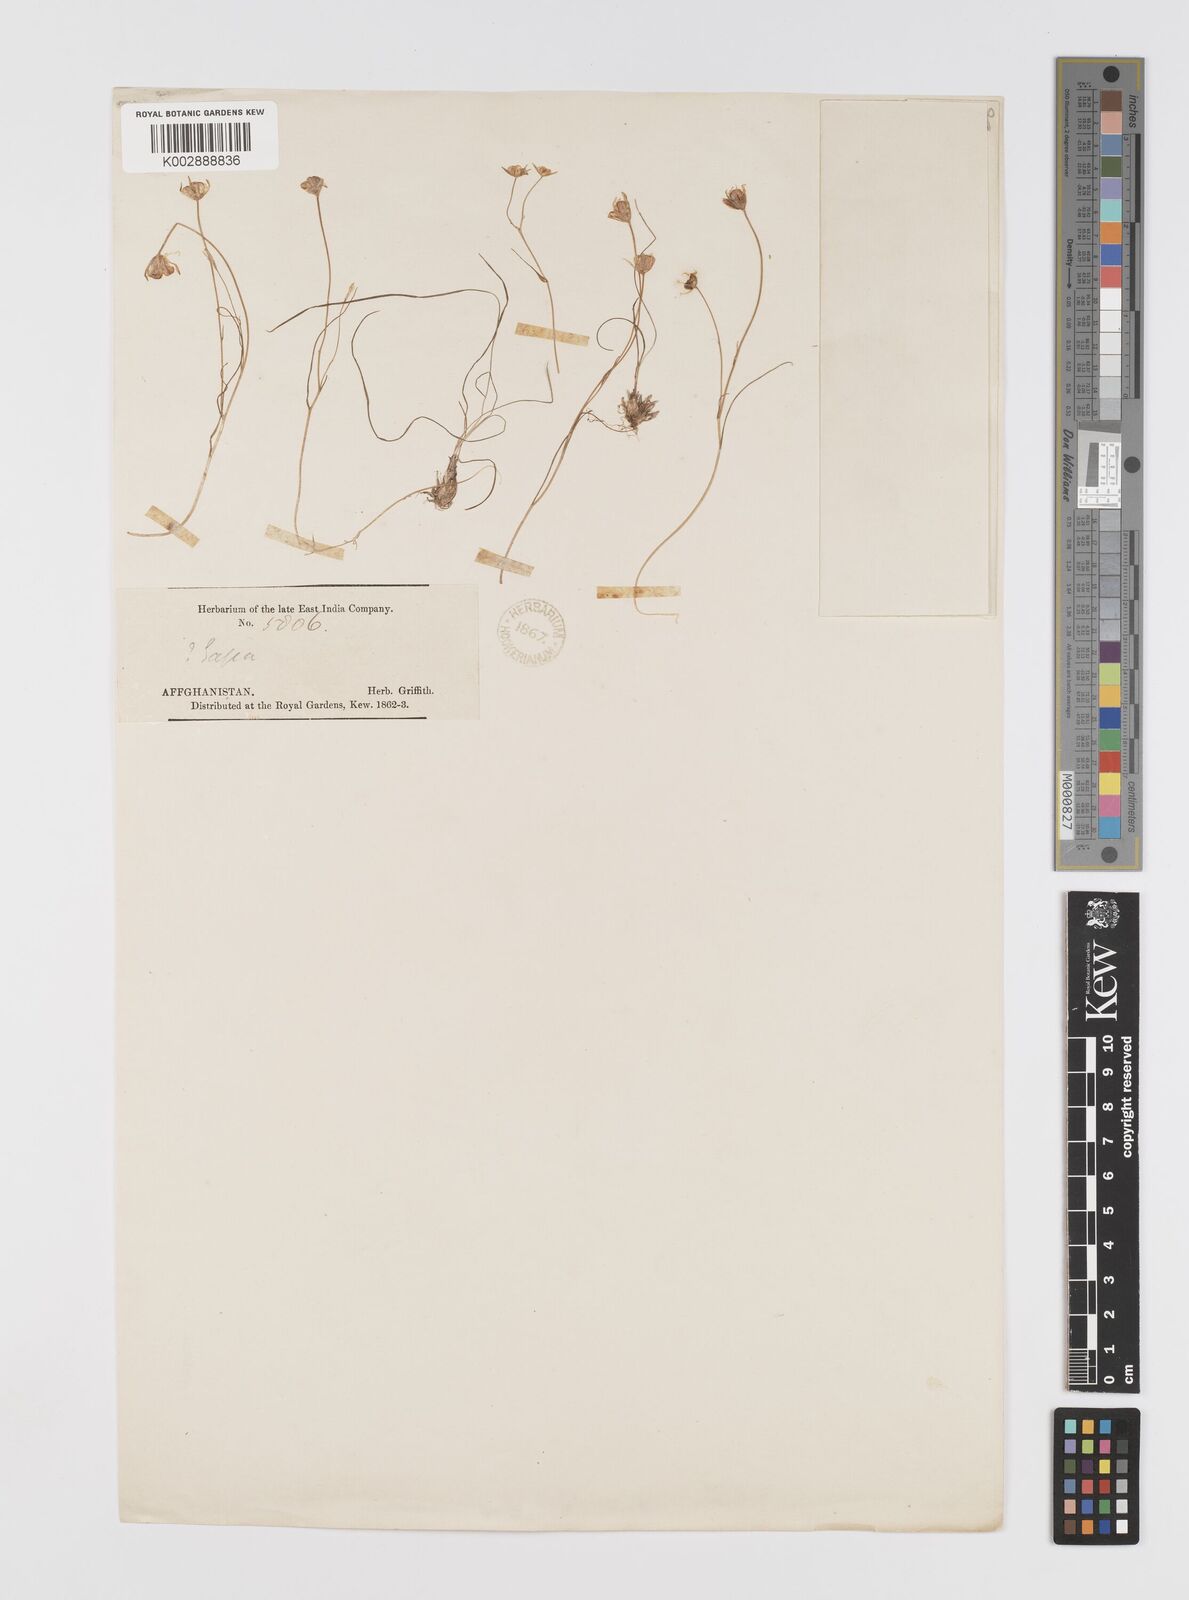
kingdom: Plantae
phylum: Tracheophyta
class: Liliopsida
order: Liliales
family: Liliaceae
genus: Gagea
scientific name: Gagea
